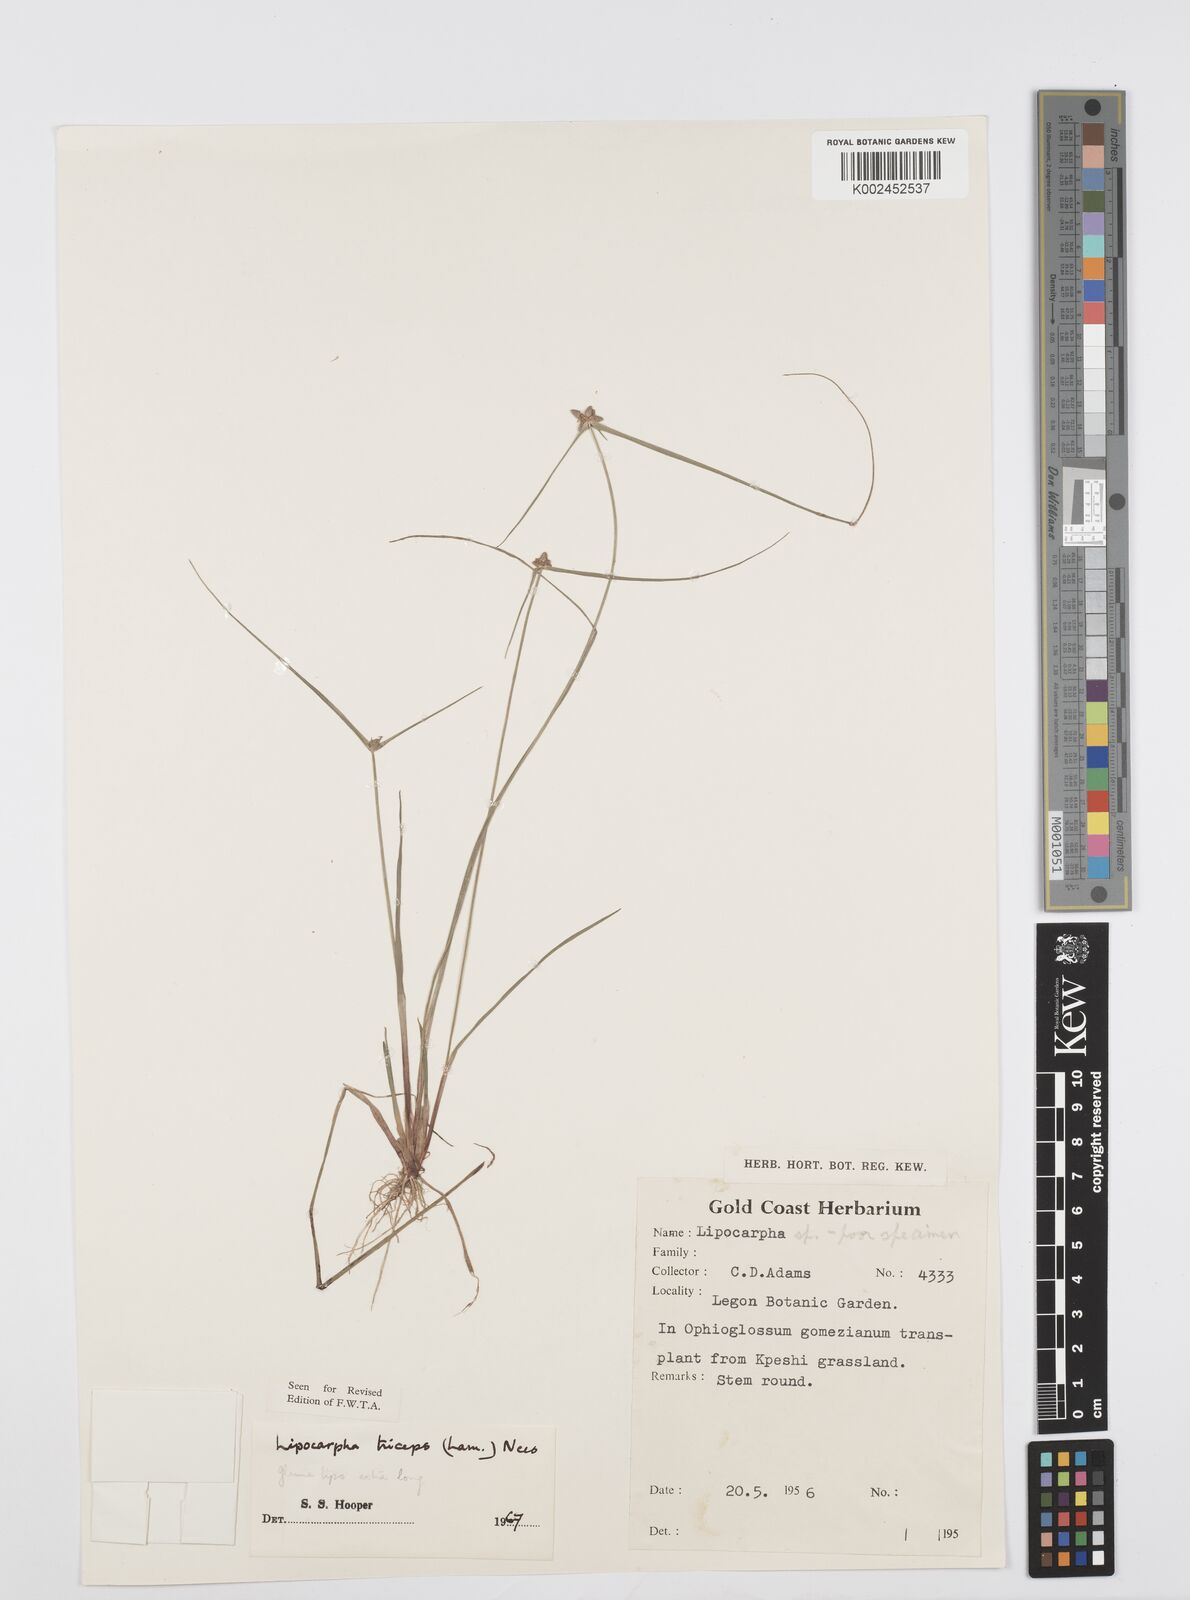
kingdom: Plantae
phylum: Tracheophyta
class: Liliopsida
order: Poales
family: Cyperaceae
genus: Cyperus
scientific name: Cyperus filiformis
